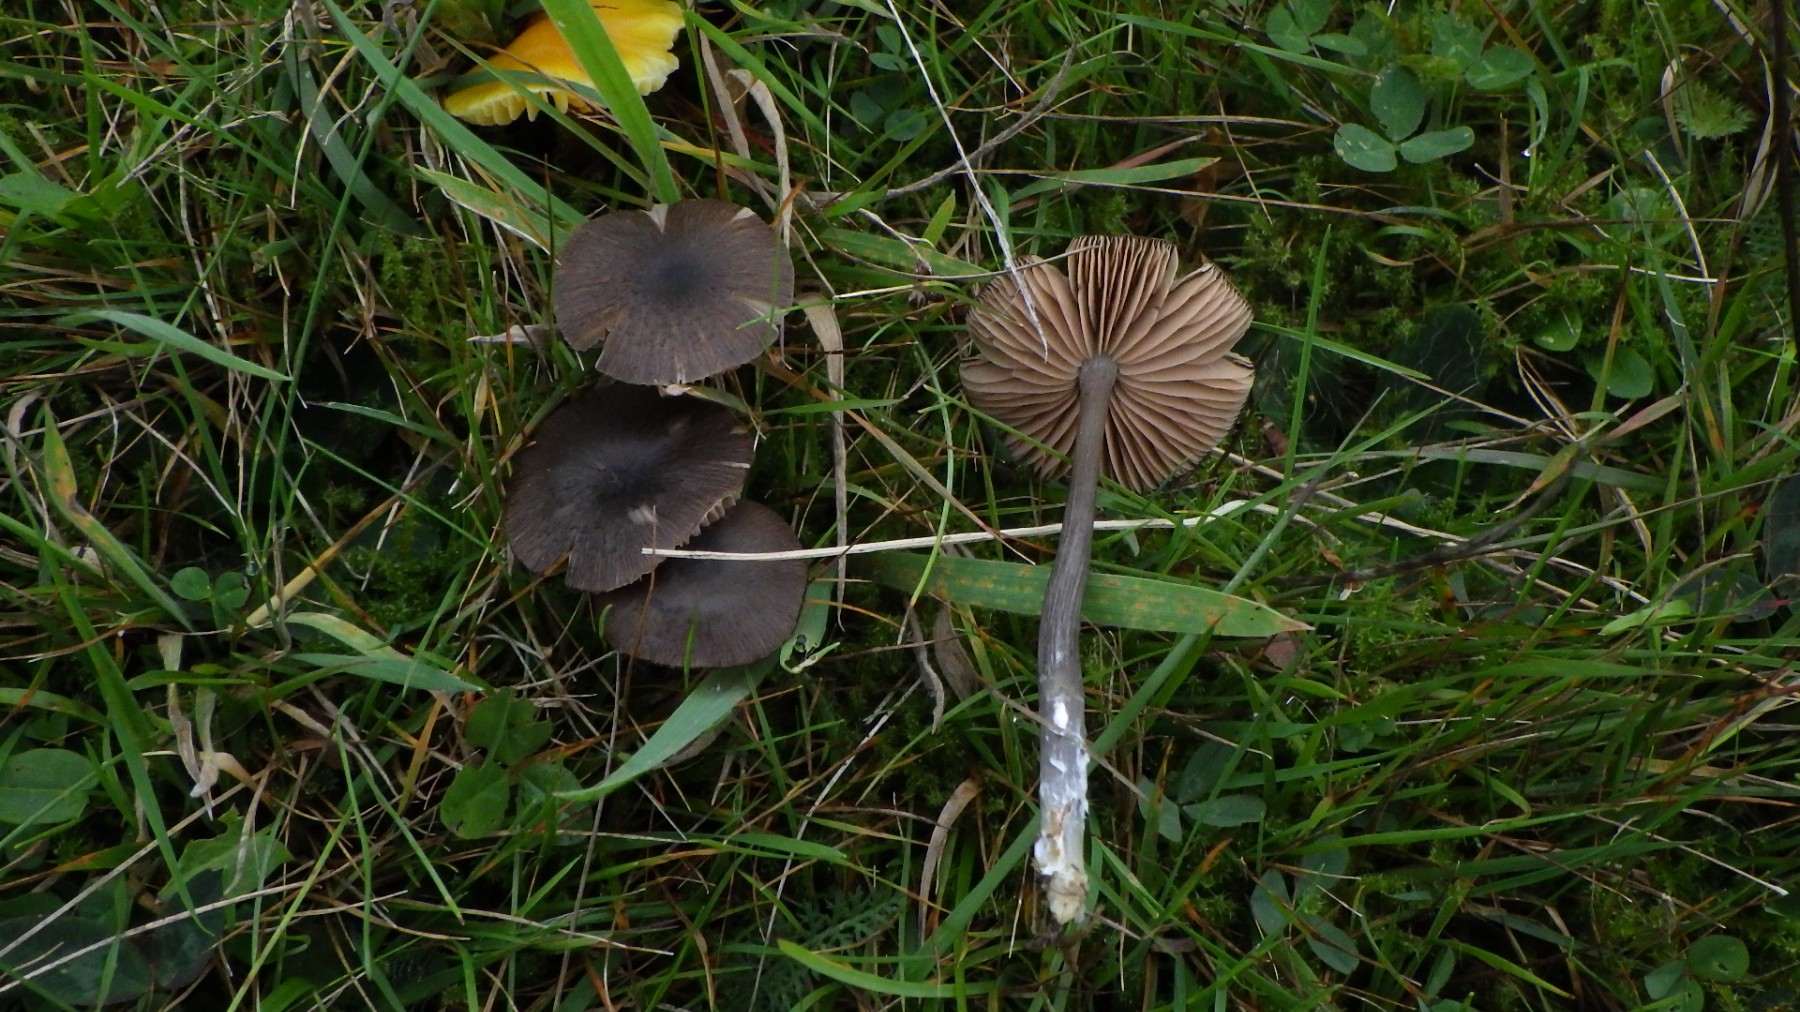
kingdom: Fungi
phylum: Basidiomycota
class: Agaricomycetes
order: Agaricales
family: Entolomataceae
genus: Entoloma
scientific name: Entoloma
